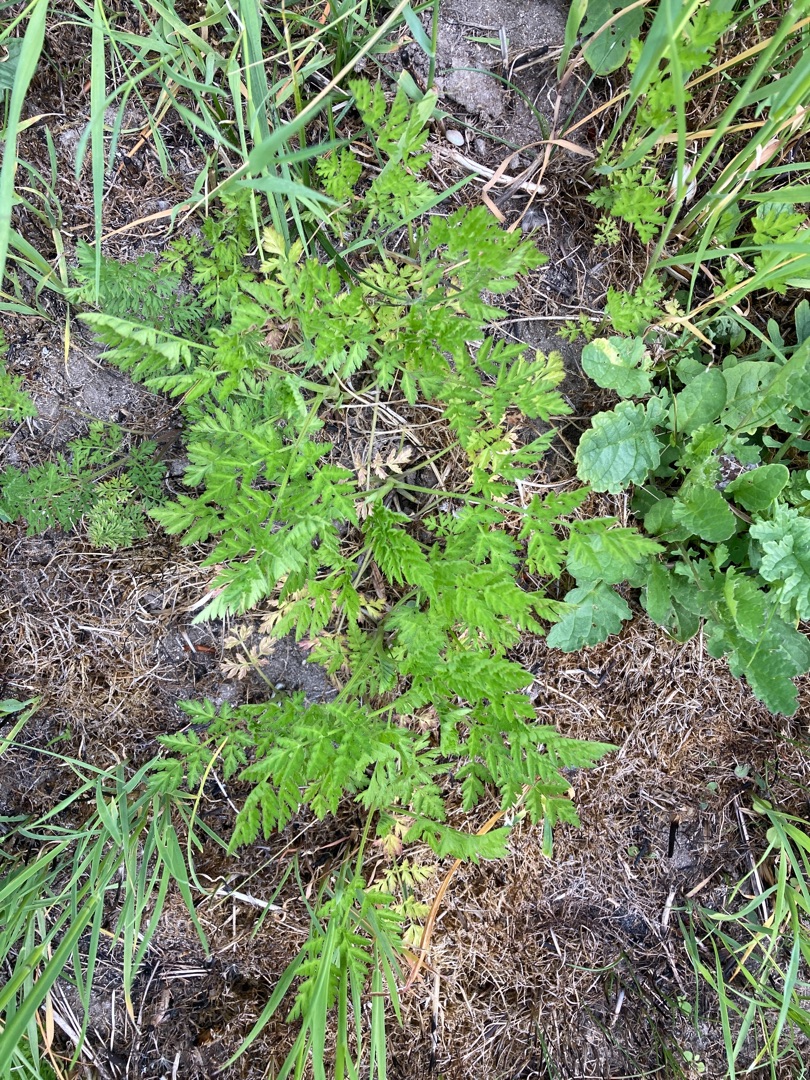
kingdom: Plantae
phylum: Tracheophyta
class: Magnoliopsida
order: Apiales
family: Apiaceae
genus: Daucus
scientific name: Daucus carota
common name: Vild gulerod
